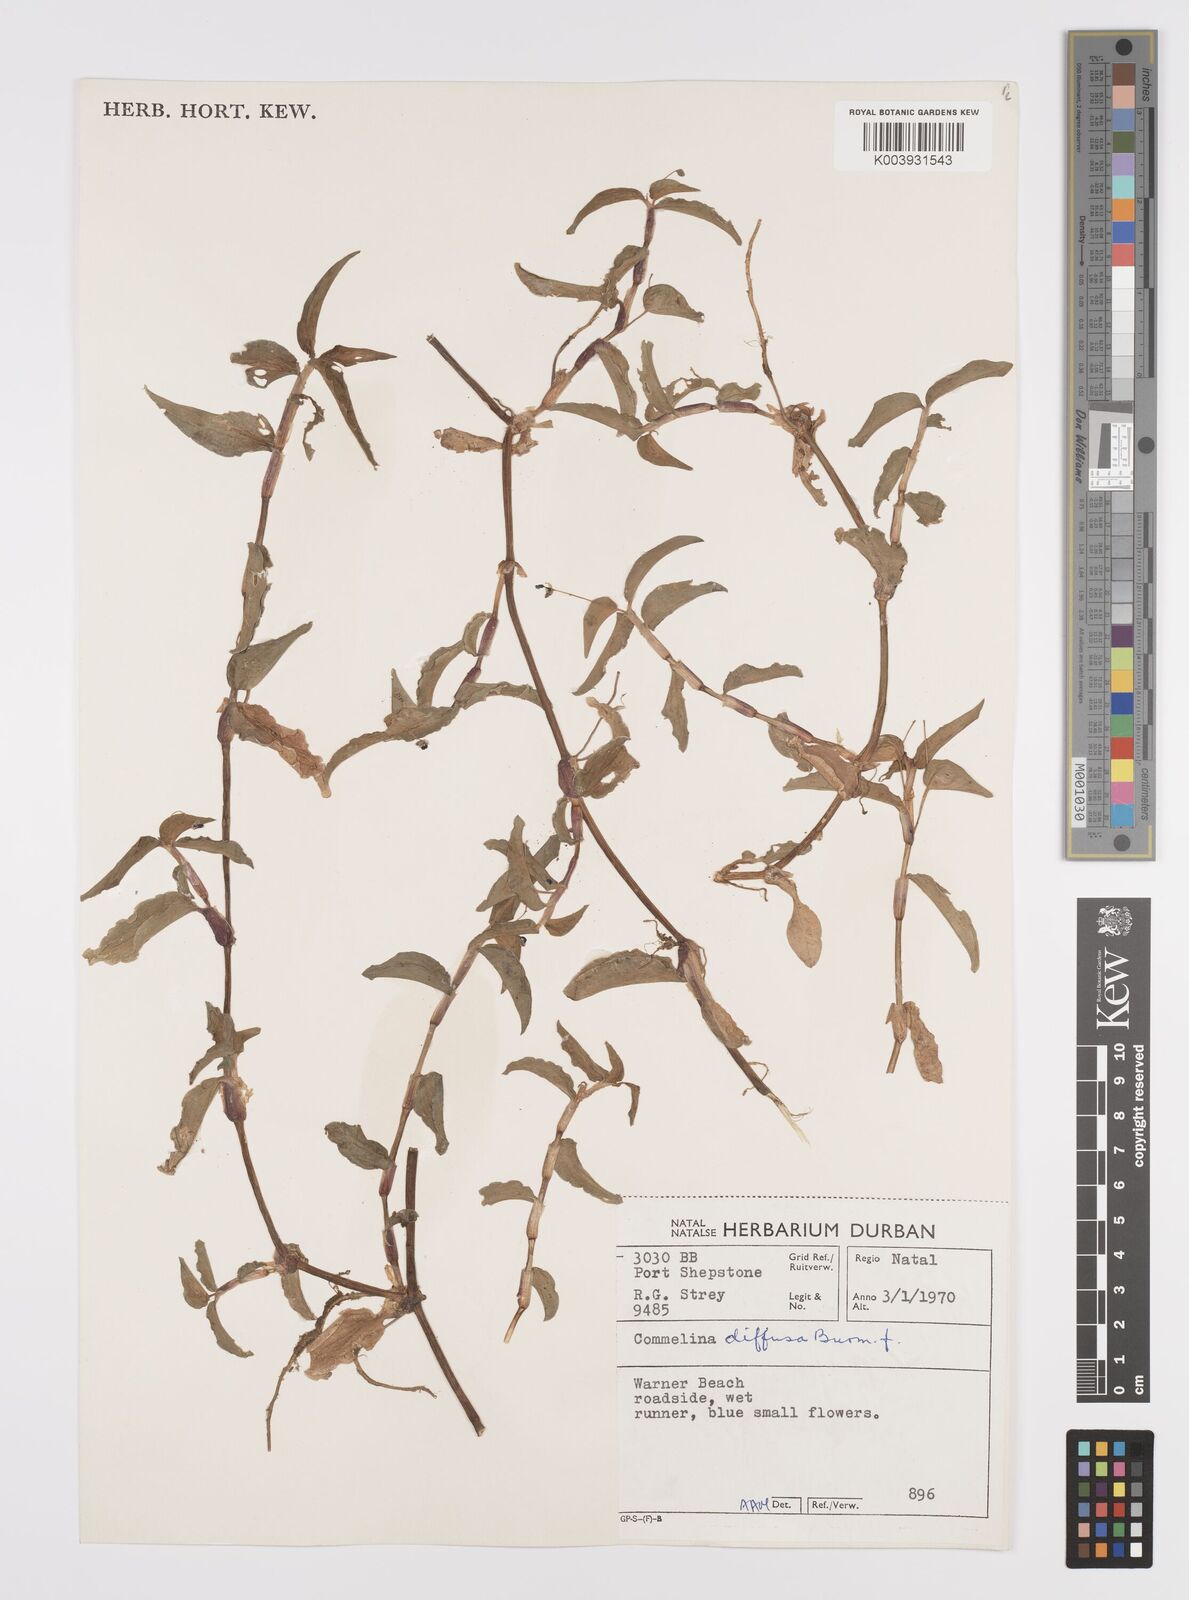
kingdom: Plantae
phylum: Tracheophyta
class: Liliopsida
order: Commelinales
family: Commelinaceae
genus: Commelina
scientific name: Commelina diffusa
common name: Climbing dayflower
